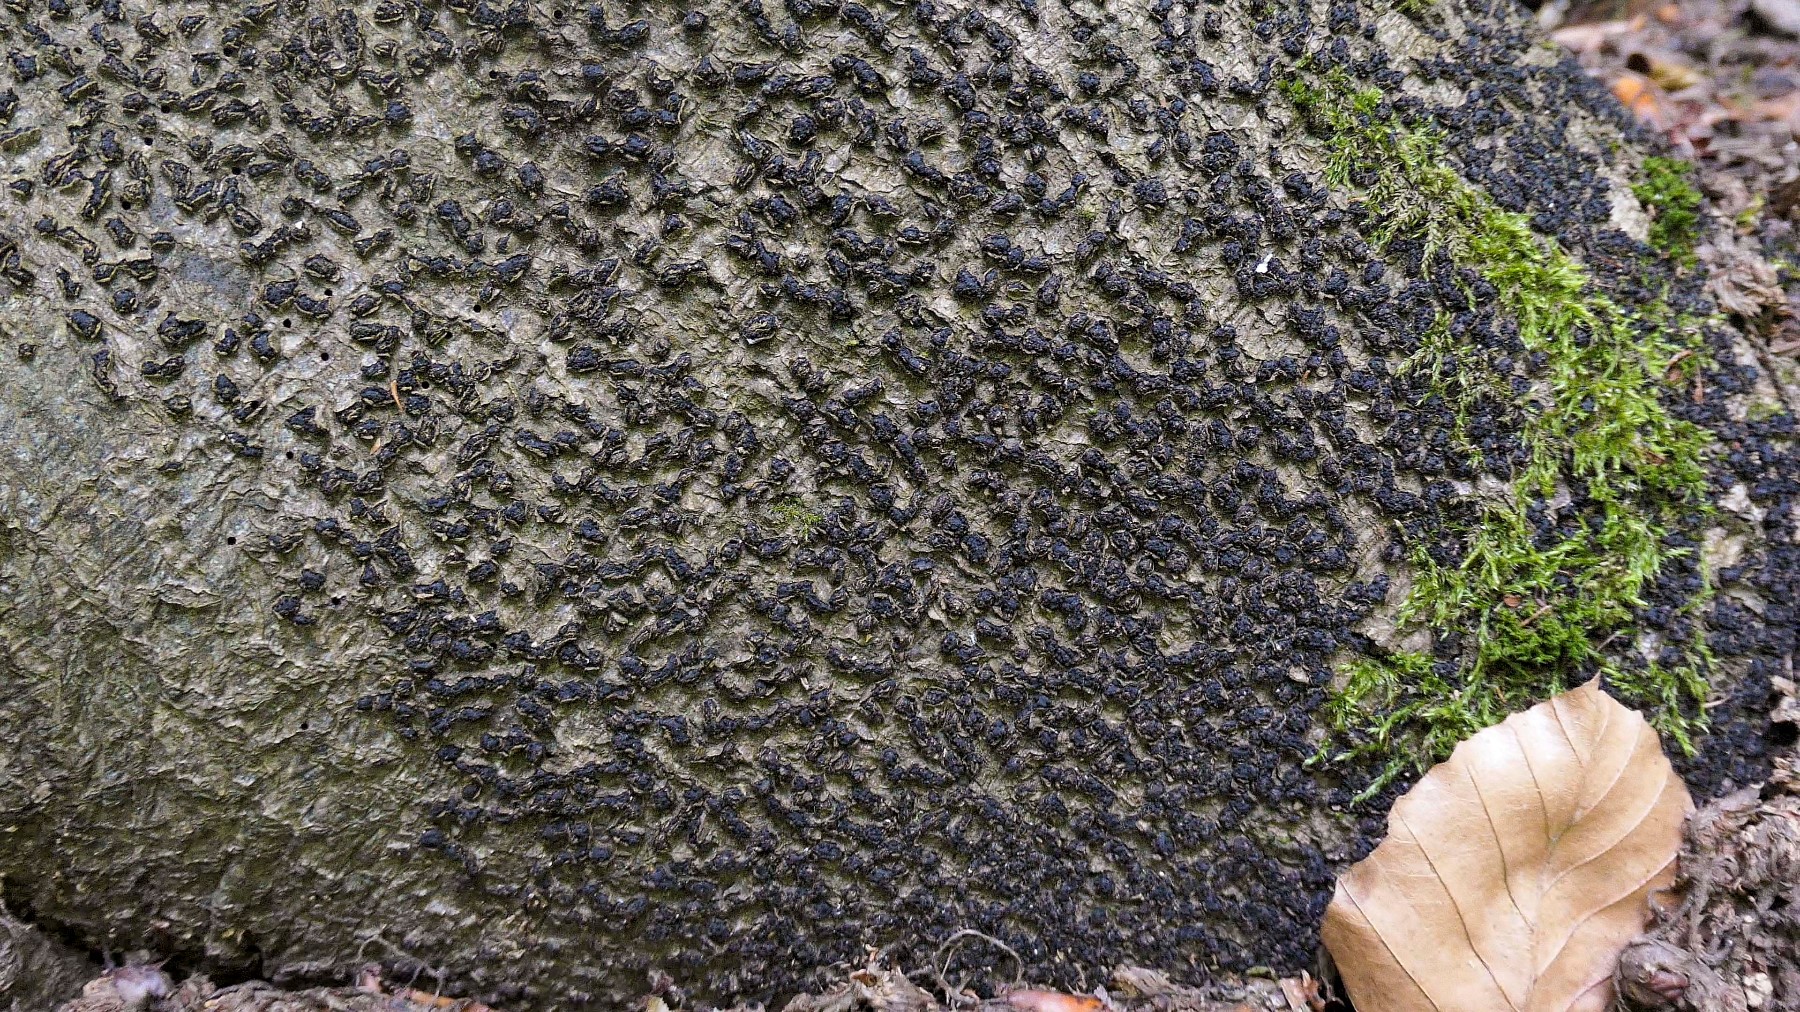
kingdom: Fungi
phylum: Ascomycota
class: Sordariomycetes
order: Xylariales
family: Melogrammataceae
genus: Melogramma
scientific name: Melogramma spiniferum
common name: bøgefod-kulhals
